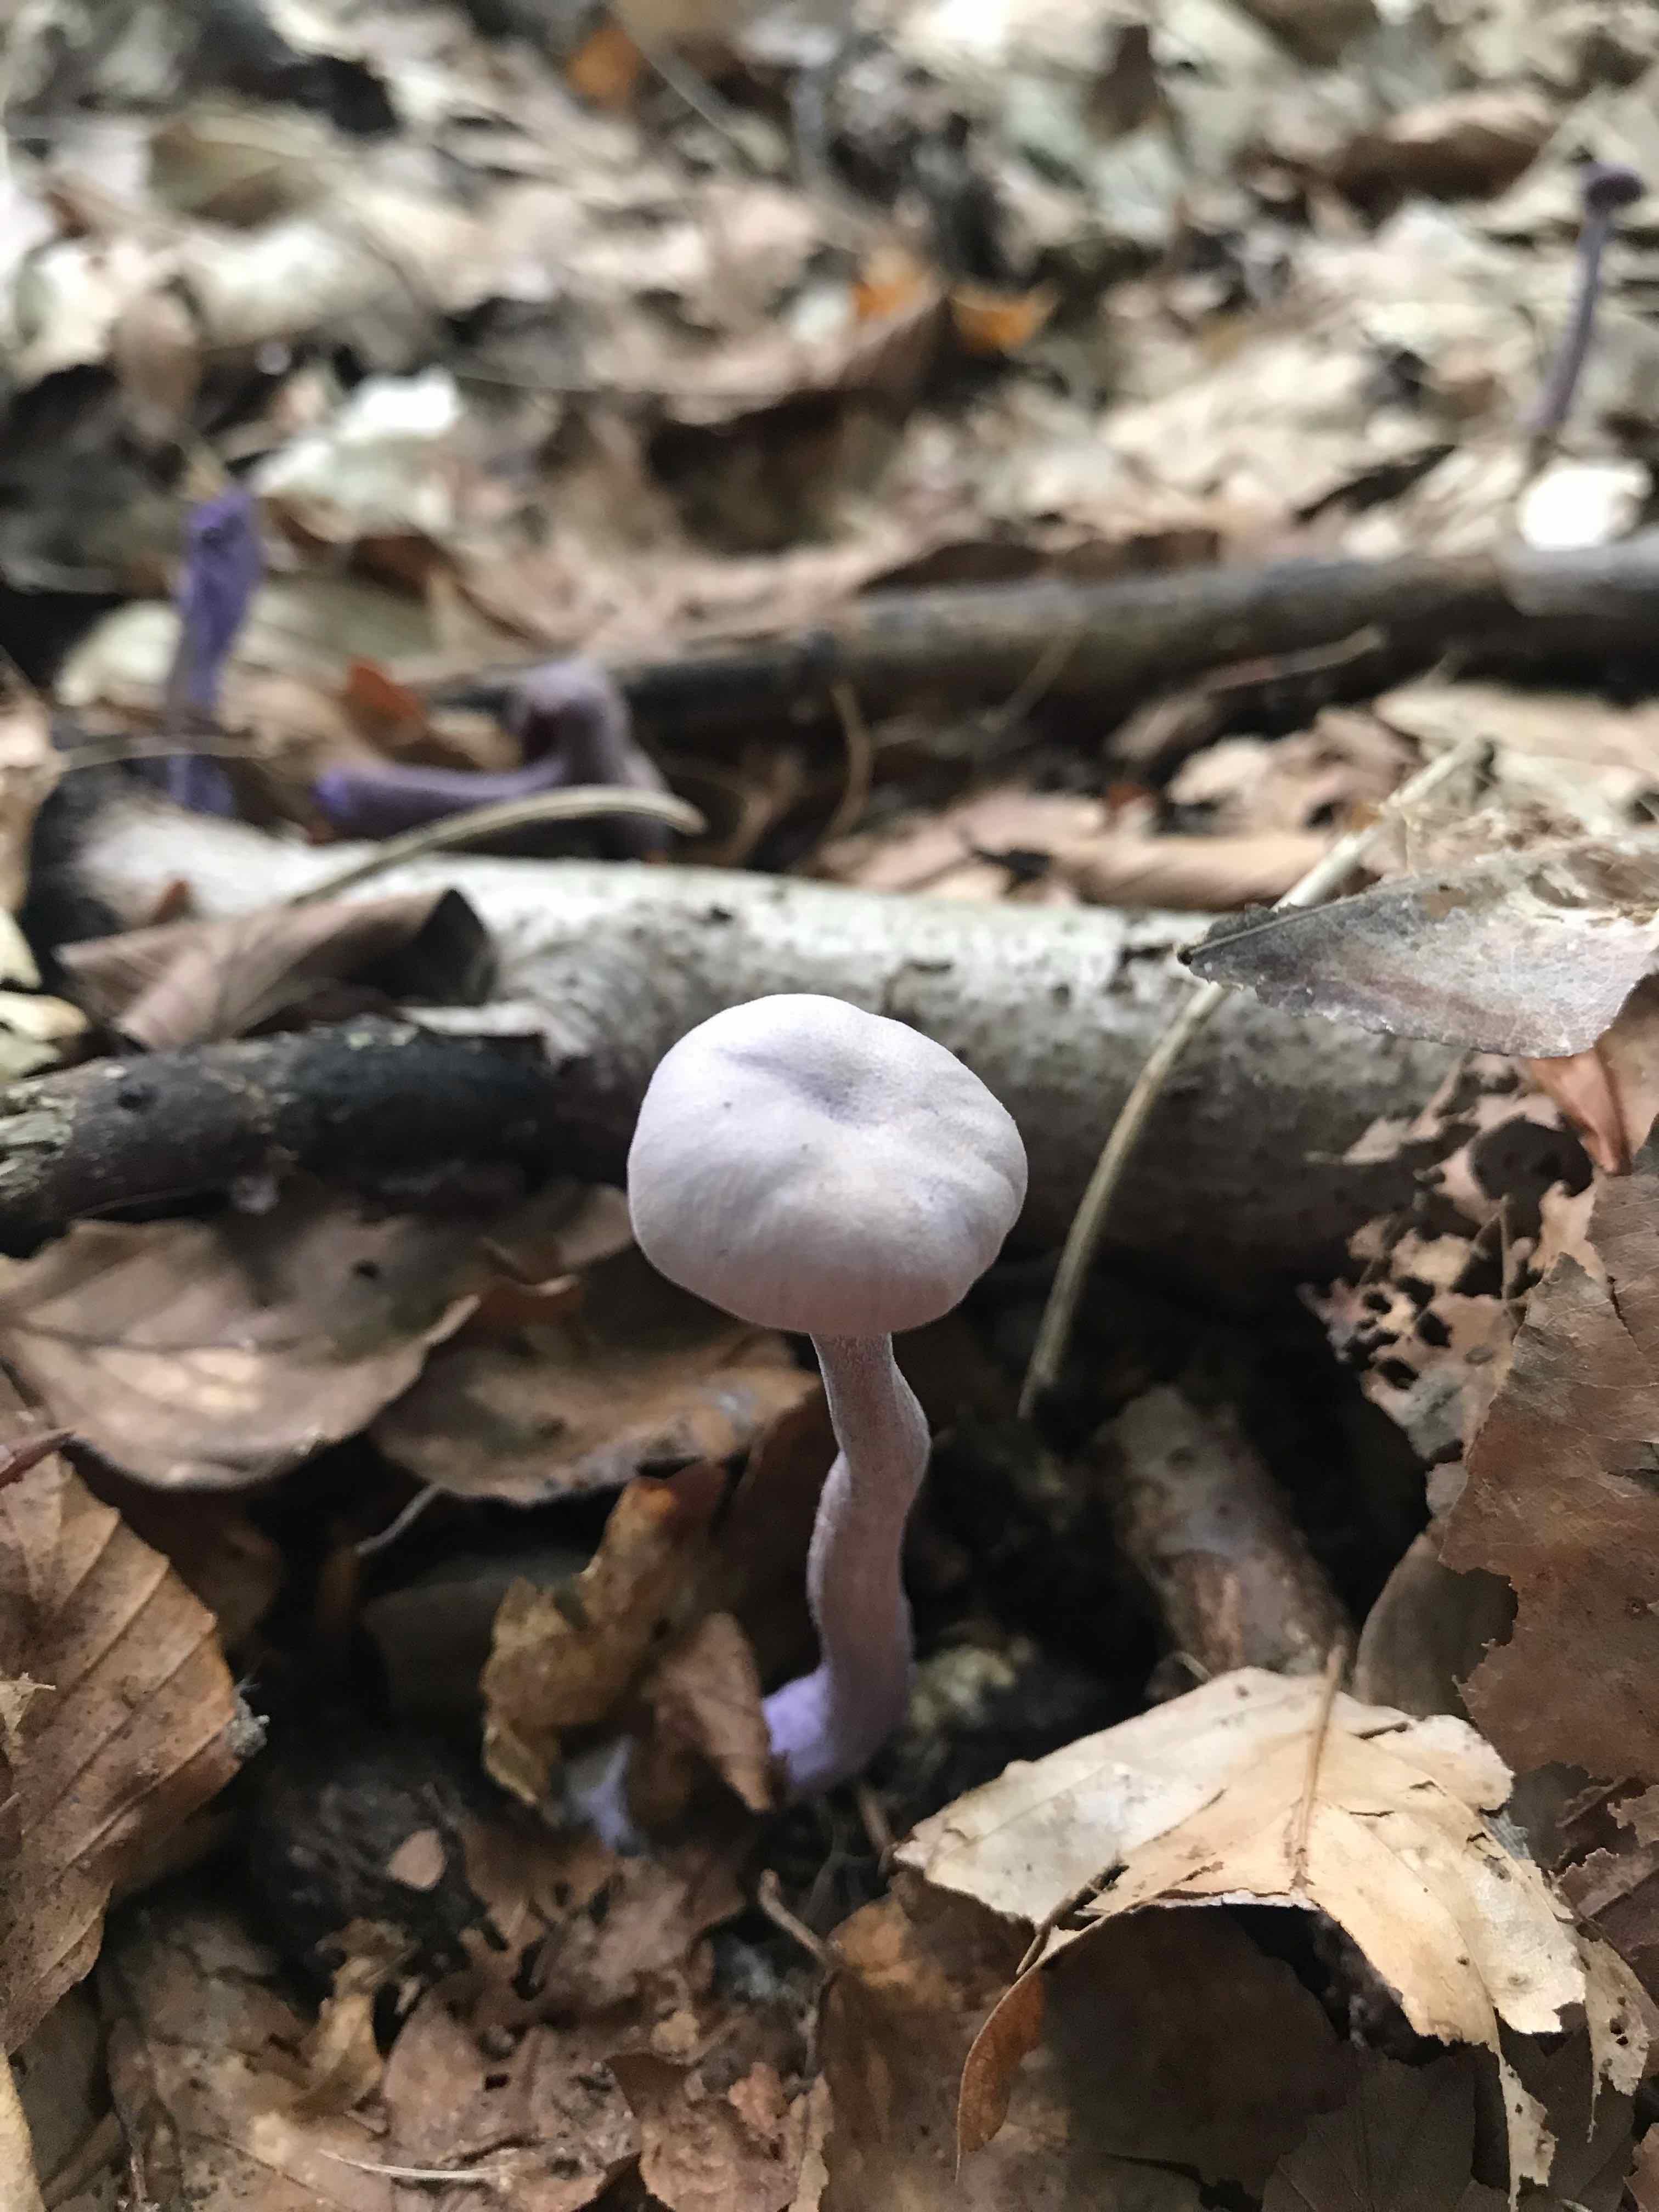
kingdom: Fungi
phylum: Basidiomycota
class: Agaricomycetes
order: Agaricales
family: Hydnangiaceae
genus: Laccaria
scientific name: Laccaria amethystina
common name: violet ametysthat
